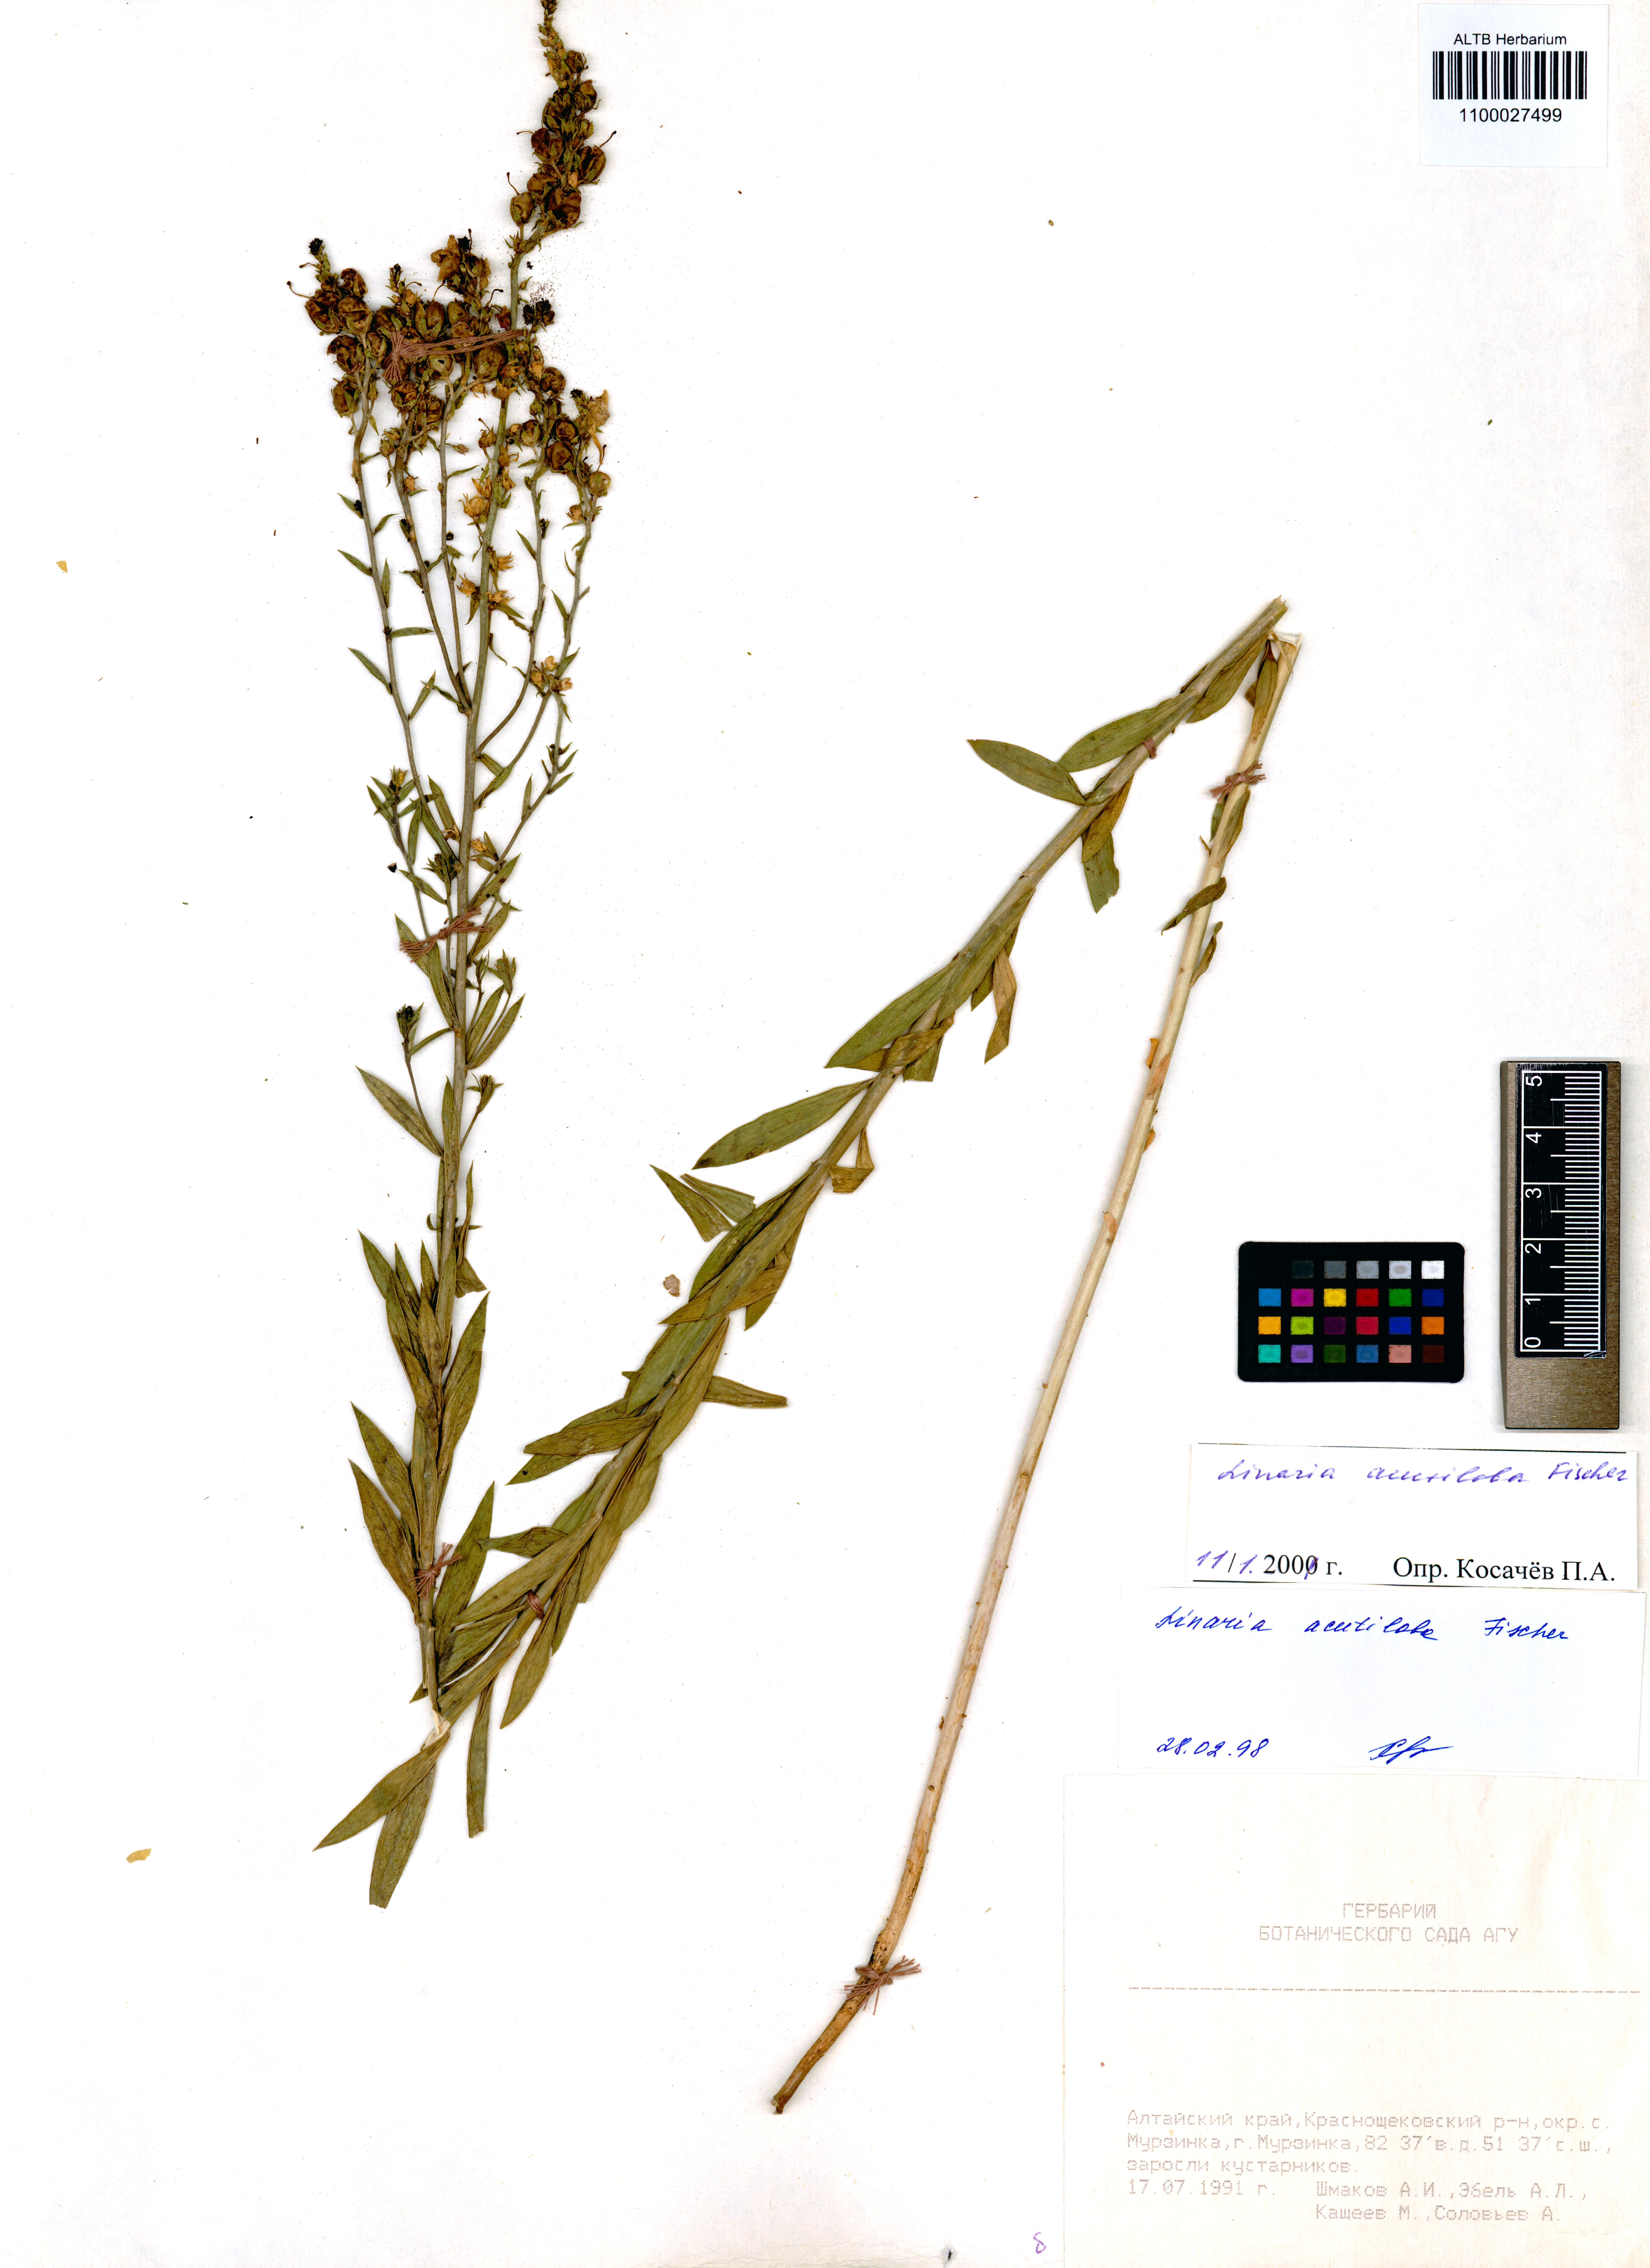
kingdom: Plantae
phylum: Tracheophyta
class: Magnoliopsida
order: Lamiales
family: Plantaginaceae
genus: Linaria
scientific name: Linaria acutiloba
